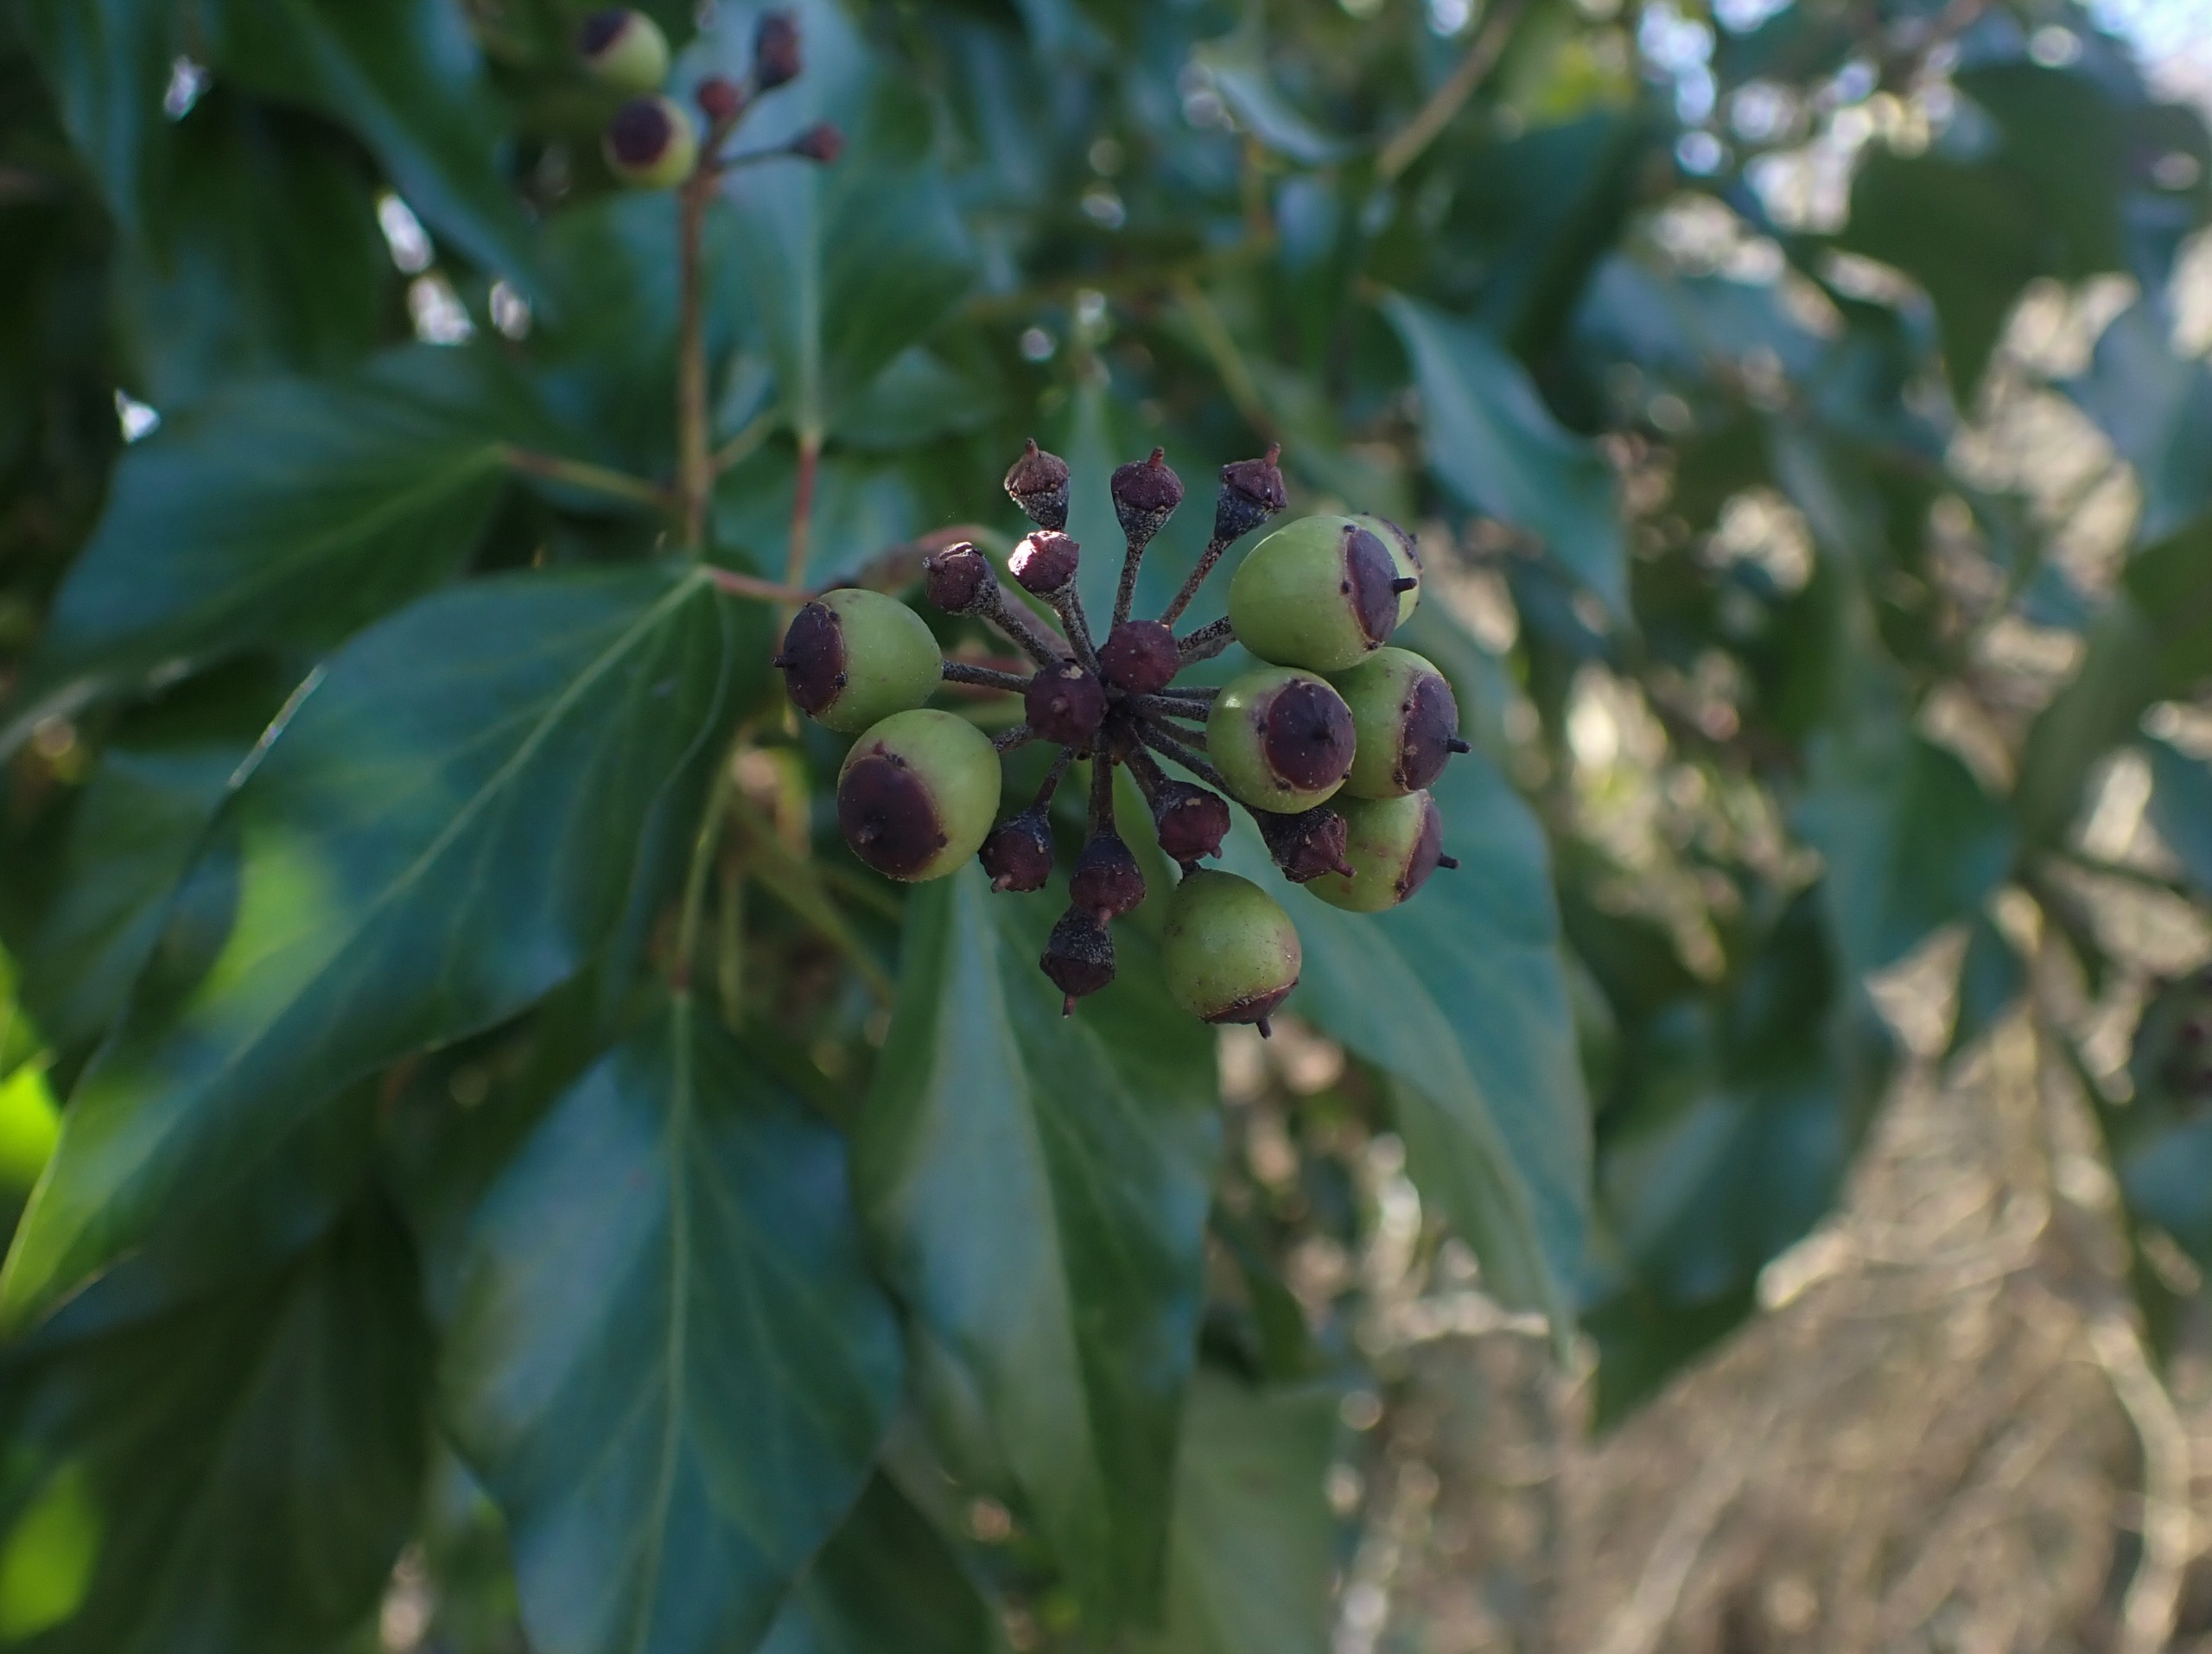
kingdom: Plantae
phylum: Tracheophyta
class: Magnoliopsida
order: Apiales
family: Araliaceae
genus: Hedera
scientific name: Hedera helix
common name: Vedbend
